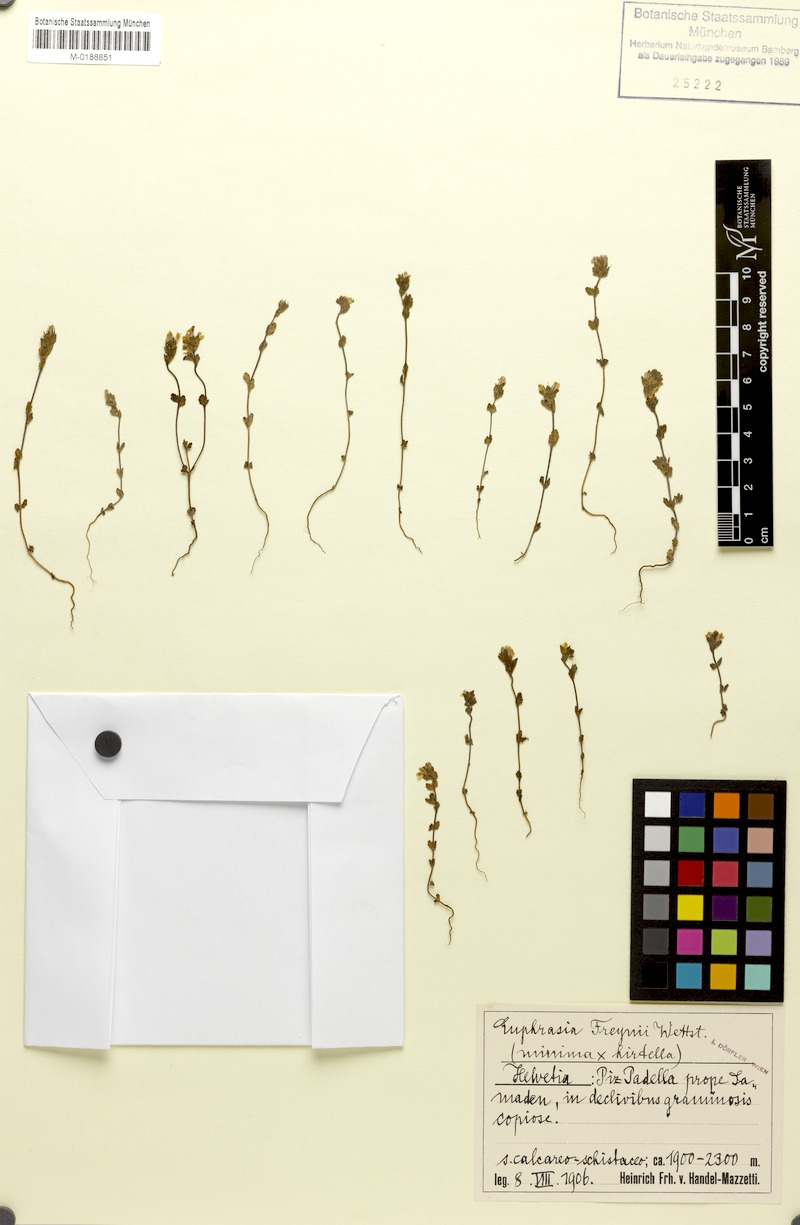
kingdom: Plantae
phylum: Tracheophyta
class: Magnoliopsida
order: Lamiales
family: Orobanchaceae
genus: Euphrasia
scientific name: Euphrasia freynii
